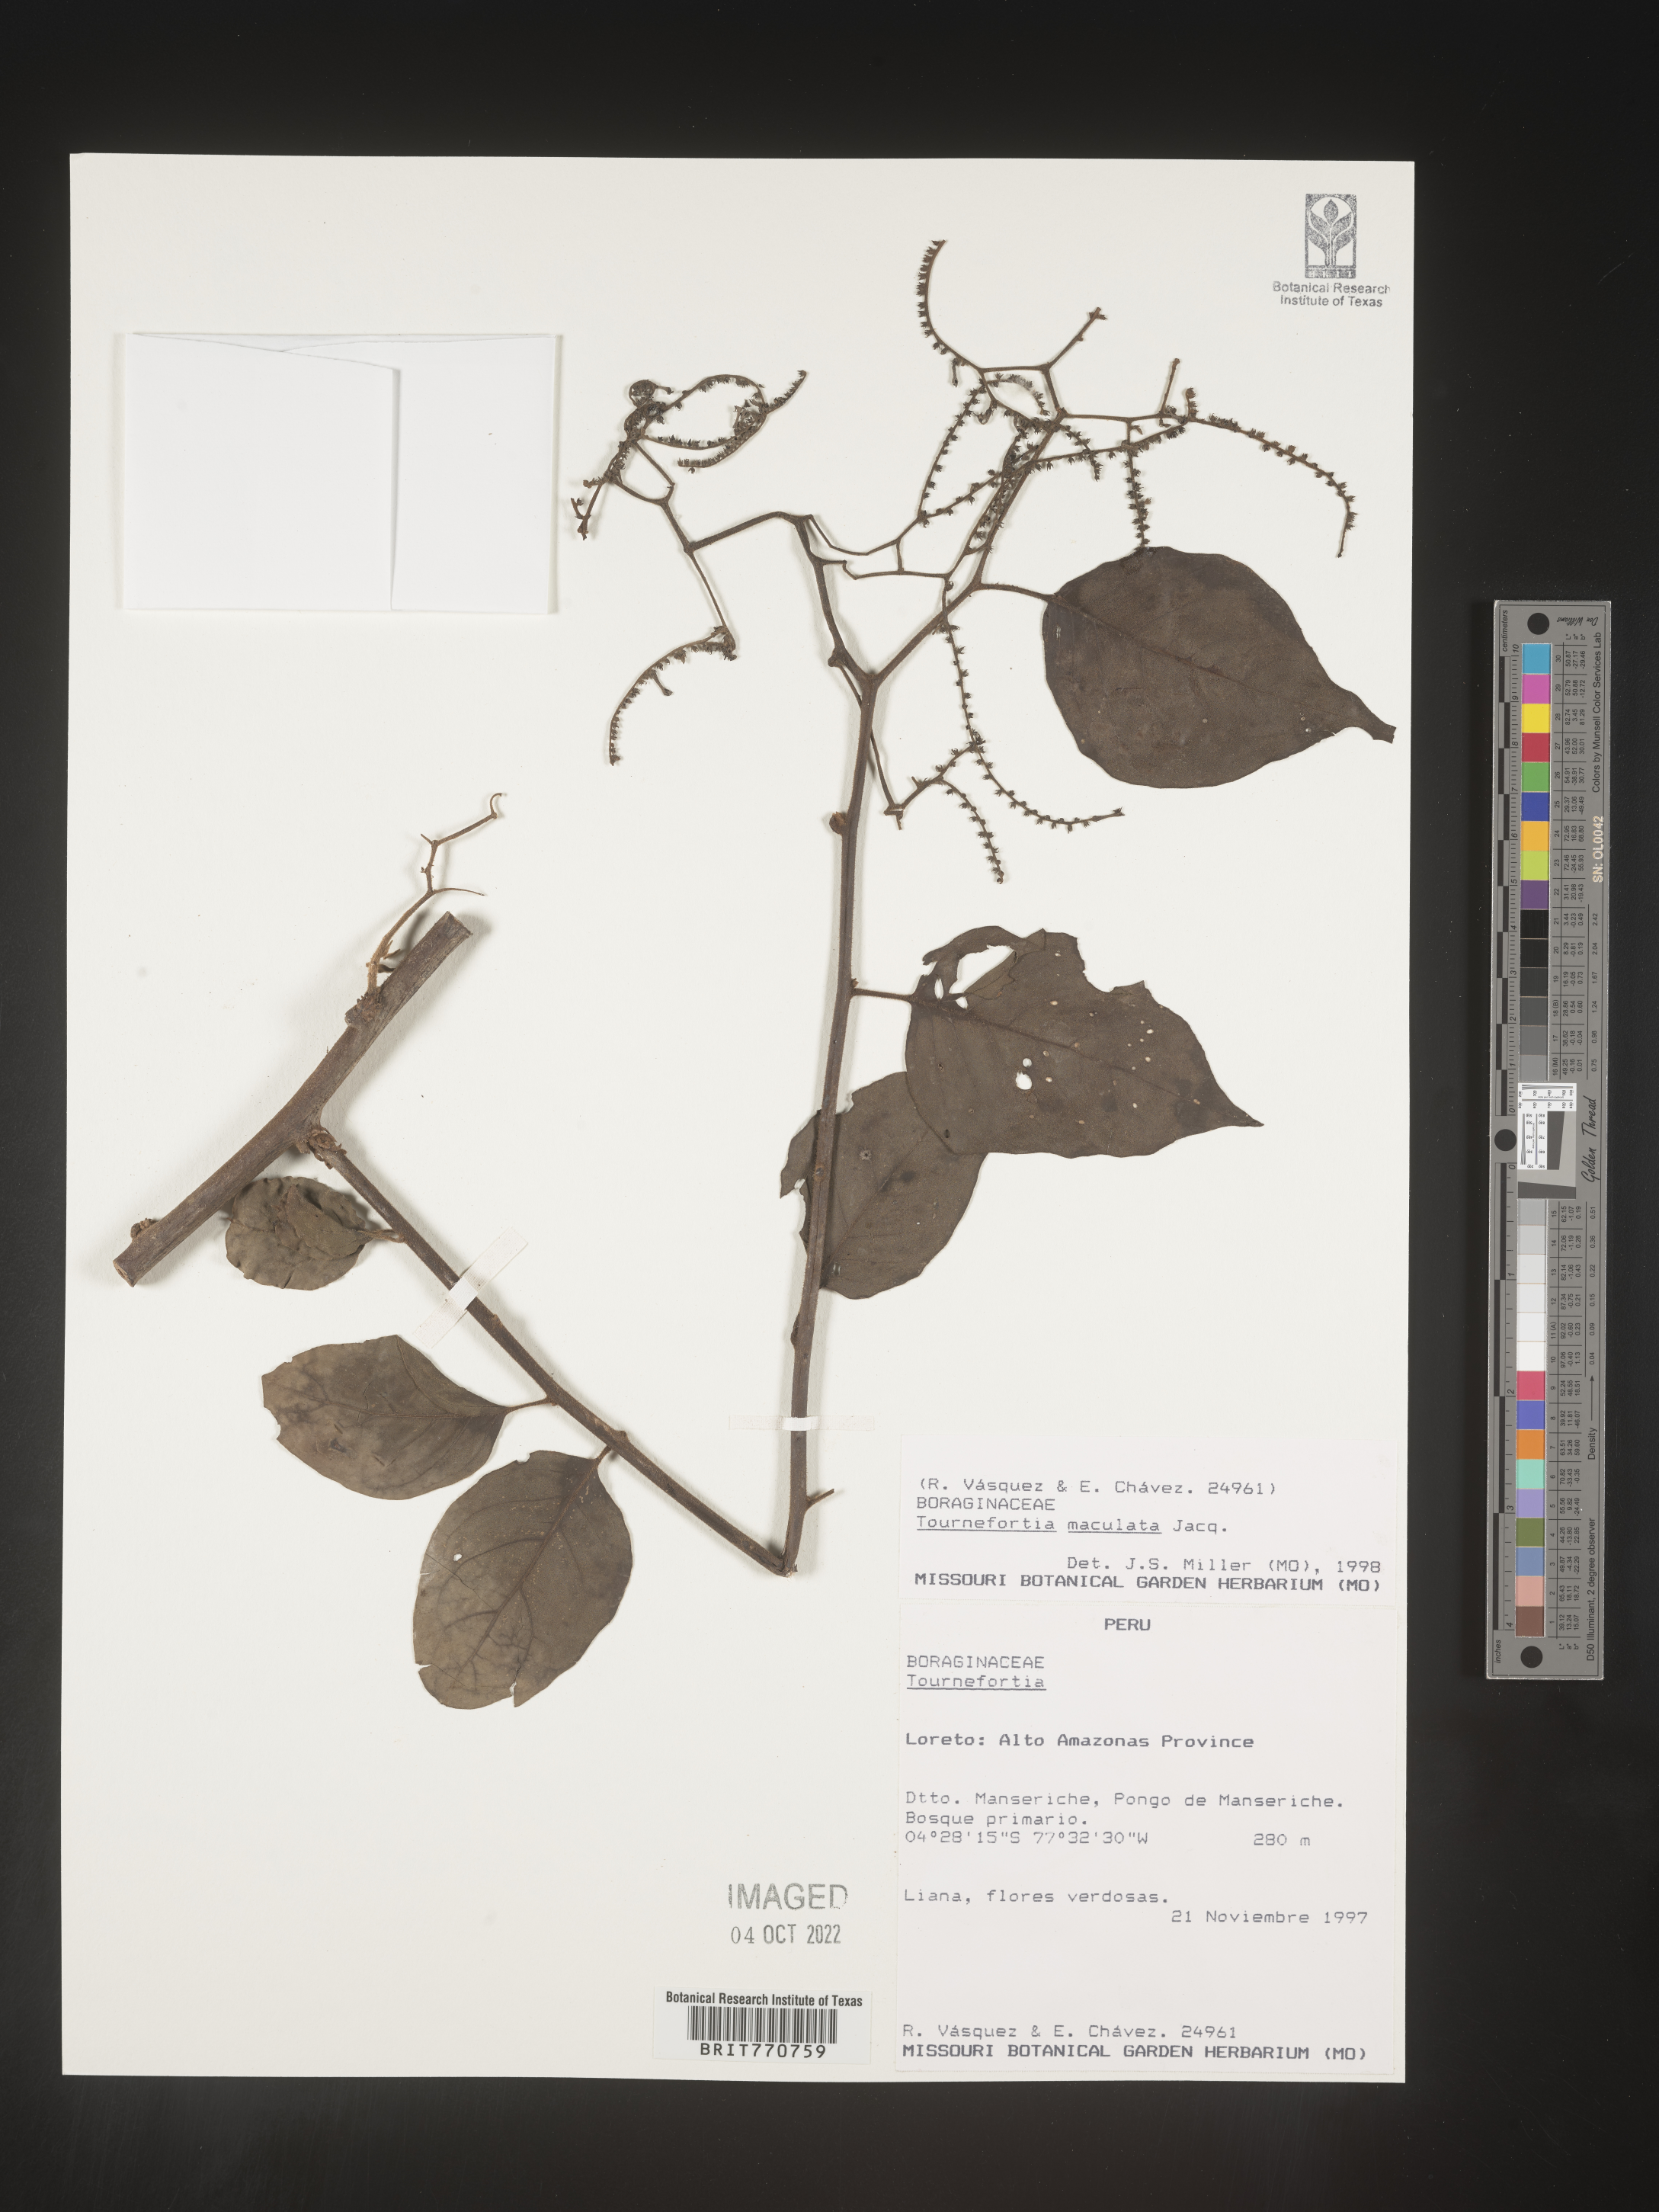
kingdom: Plantae
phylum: Tracheophyta
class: Magnoliopsida
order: Boraginales
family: Heliotropiaceae
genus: Tournefortia
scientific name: Tournefortia
